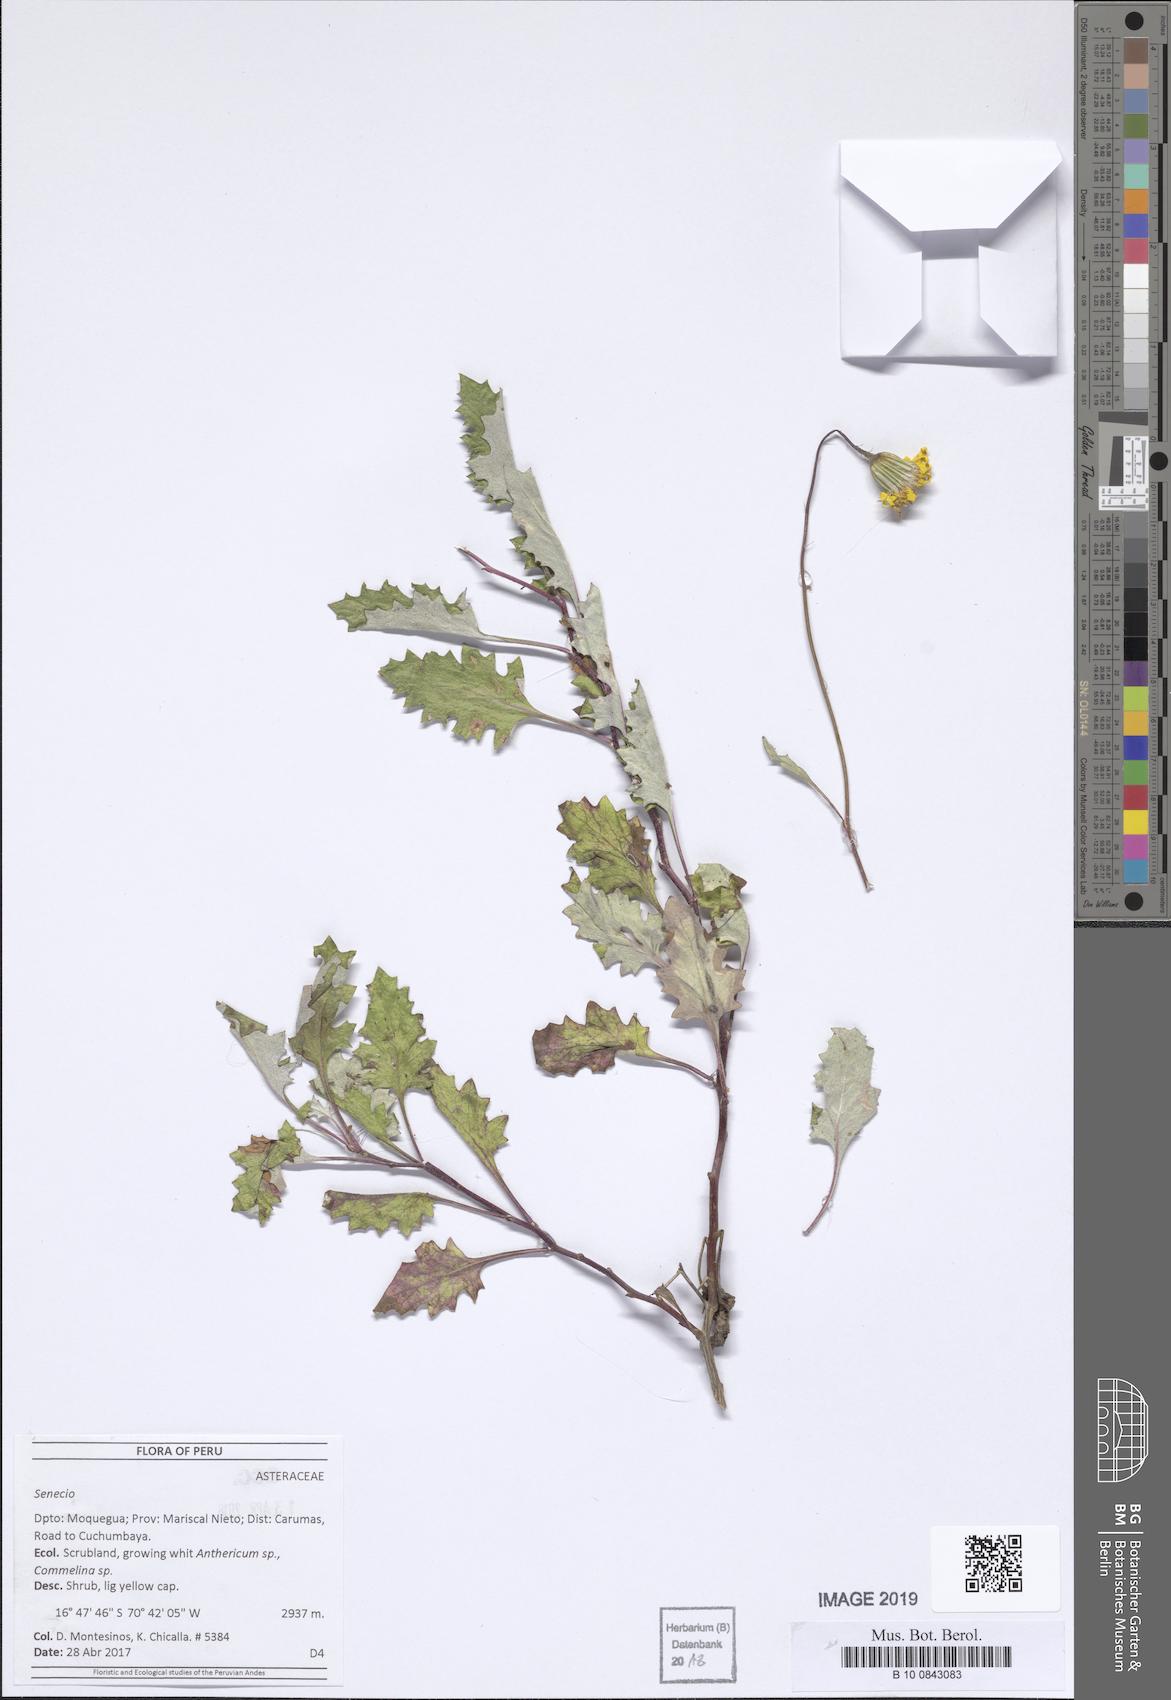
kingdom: Plantae
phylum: Tracheophyta
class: Magnoliopsida
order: Asterales
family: Asteraceae
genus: Lomanthus
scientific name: Lomanthus tovarii
